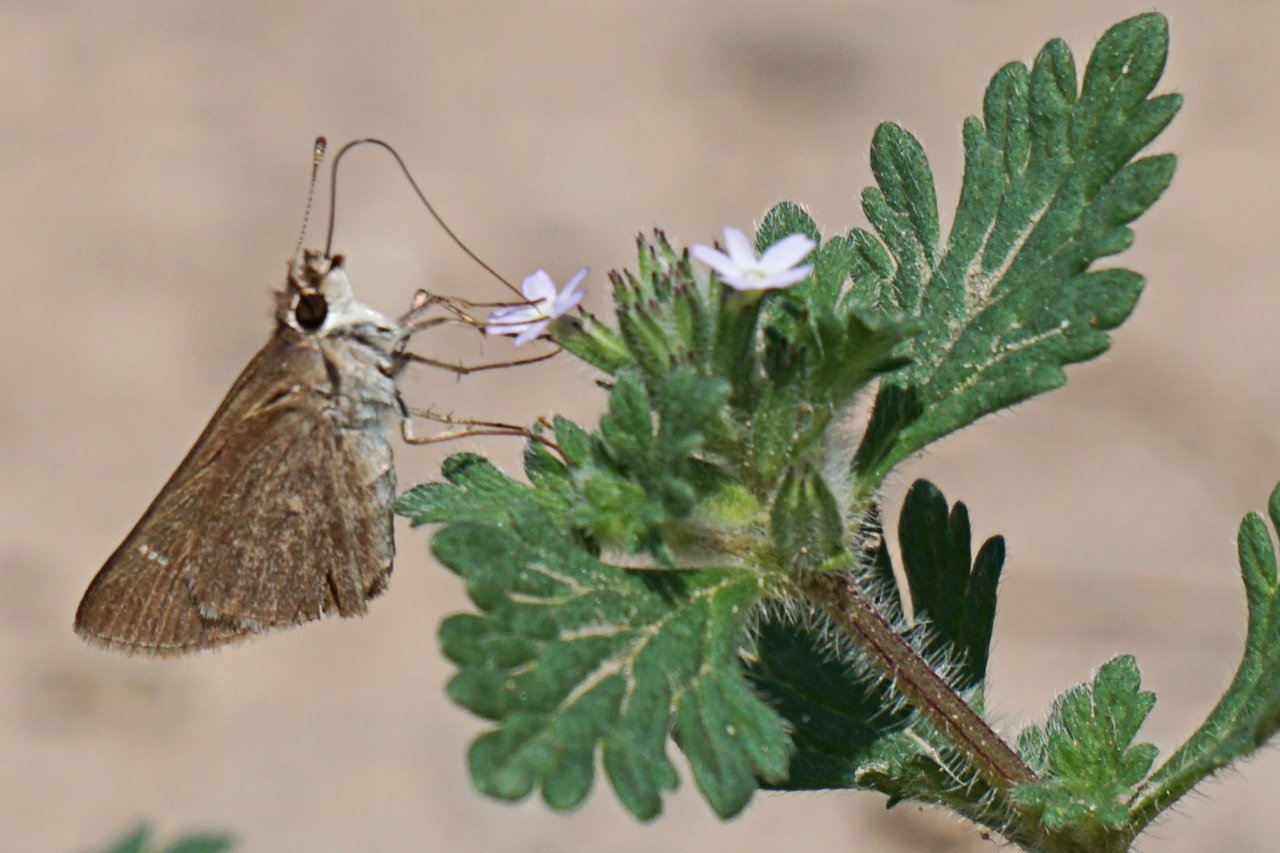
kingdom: Animalia
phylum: Arthropoda
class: Insecta
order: Lepidoptera
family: Hesperiidae
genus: Lerodea
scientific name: Lerodea eufala
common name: Eufala Skipper
